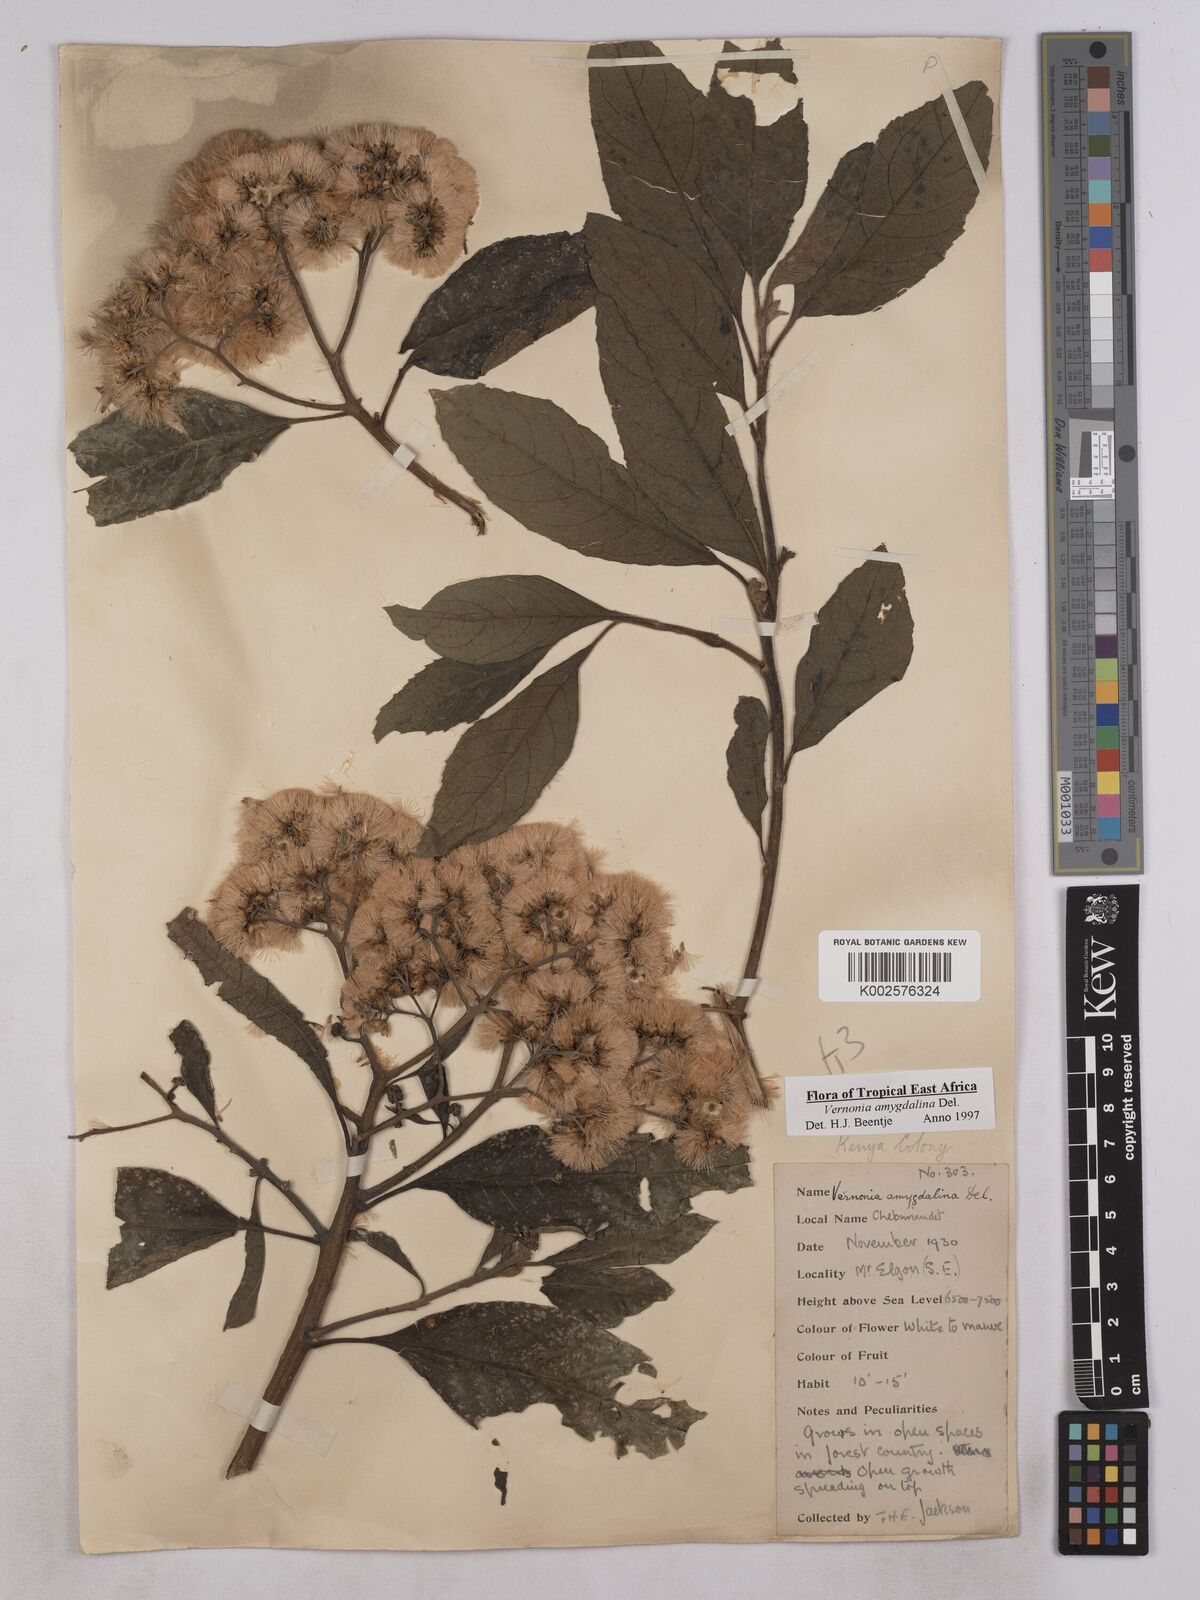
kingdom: Plantae
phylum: Tracheophyta
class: Magnoliopsida
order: Asterales
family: Asteraceae
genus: Gymnanthemum
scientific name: Gymnanthemum amygdalinum
